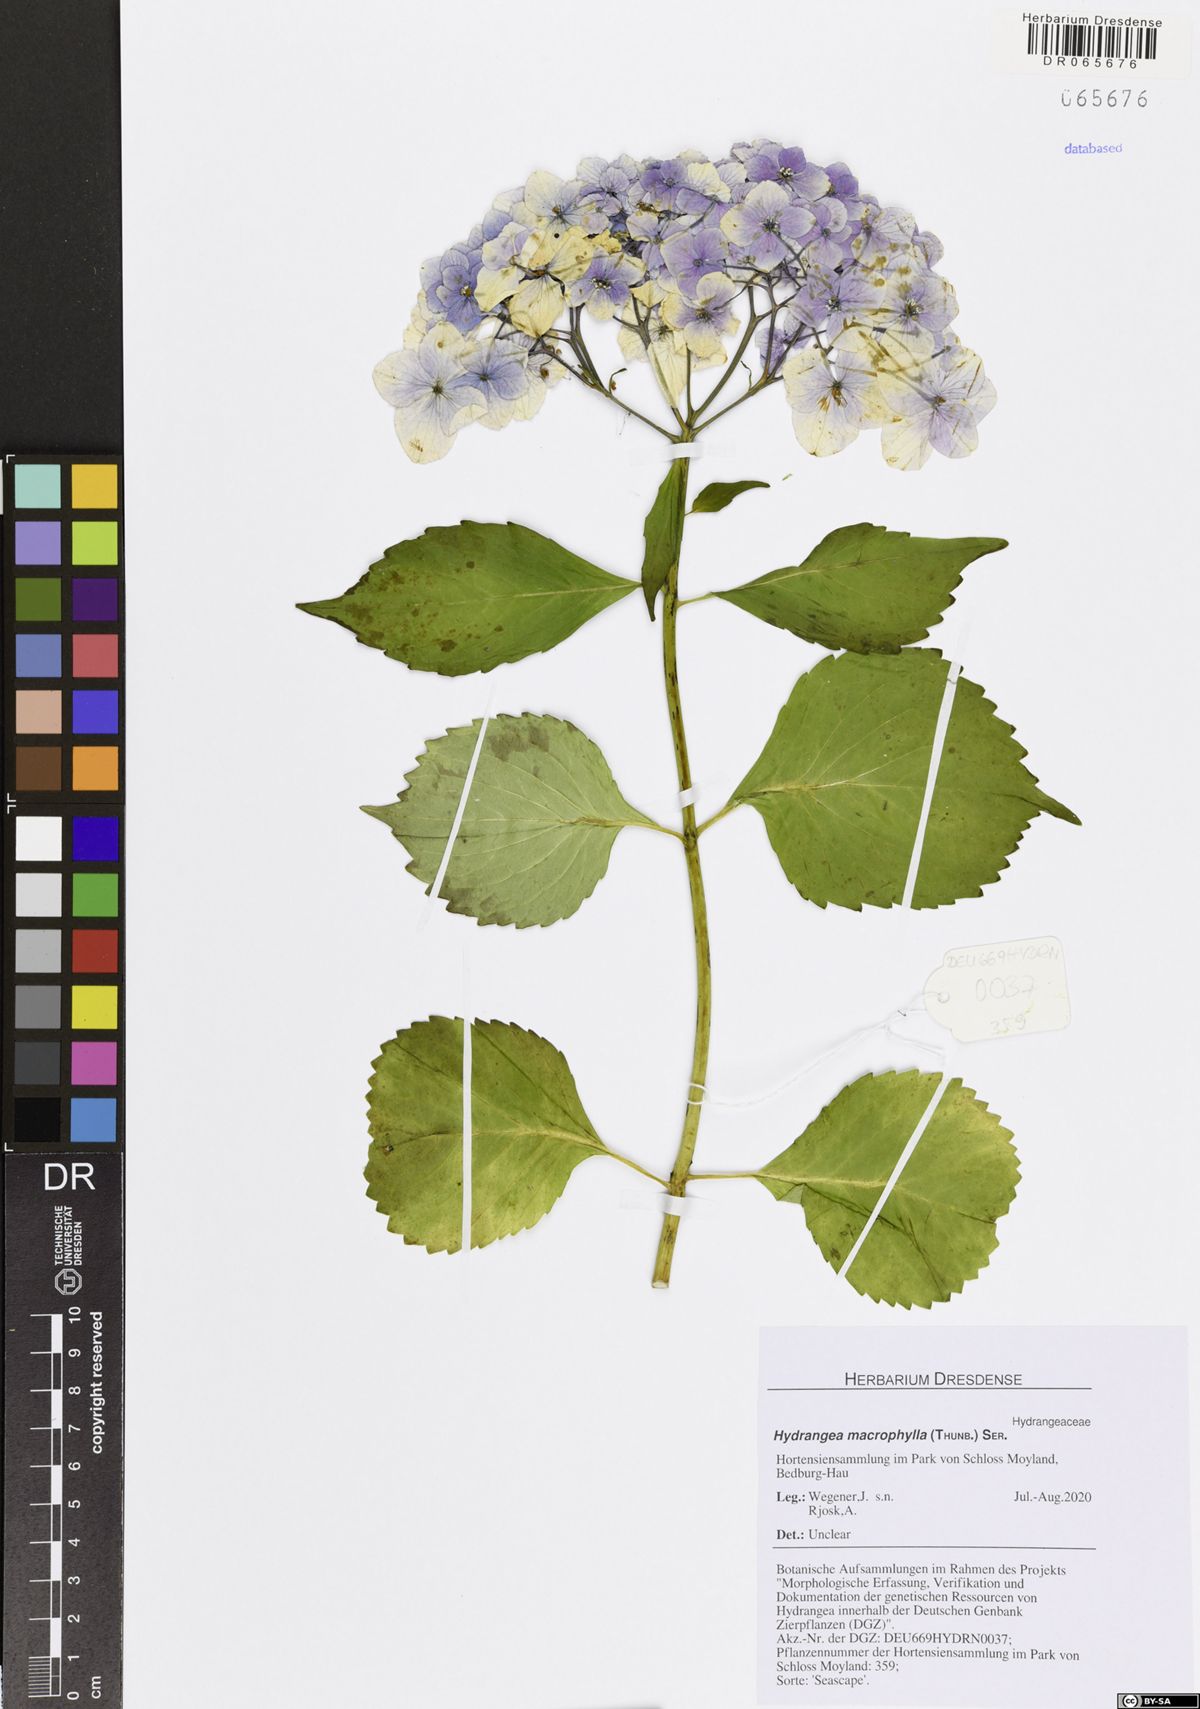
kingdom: Plantae
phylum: Tracheophyta
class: Magnoliopsida
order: Cornales
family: Hydrangeaceae
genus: Hydrangea
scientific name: Hydrangea macrophylla
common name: Hydrangea
